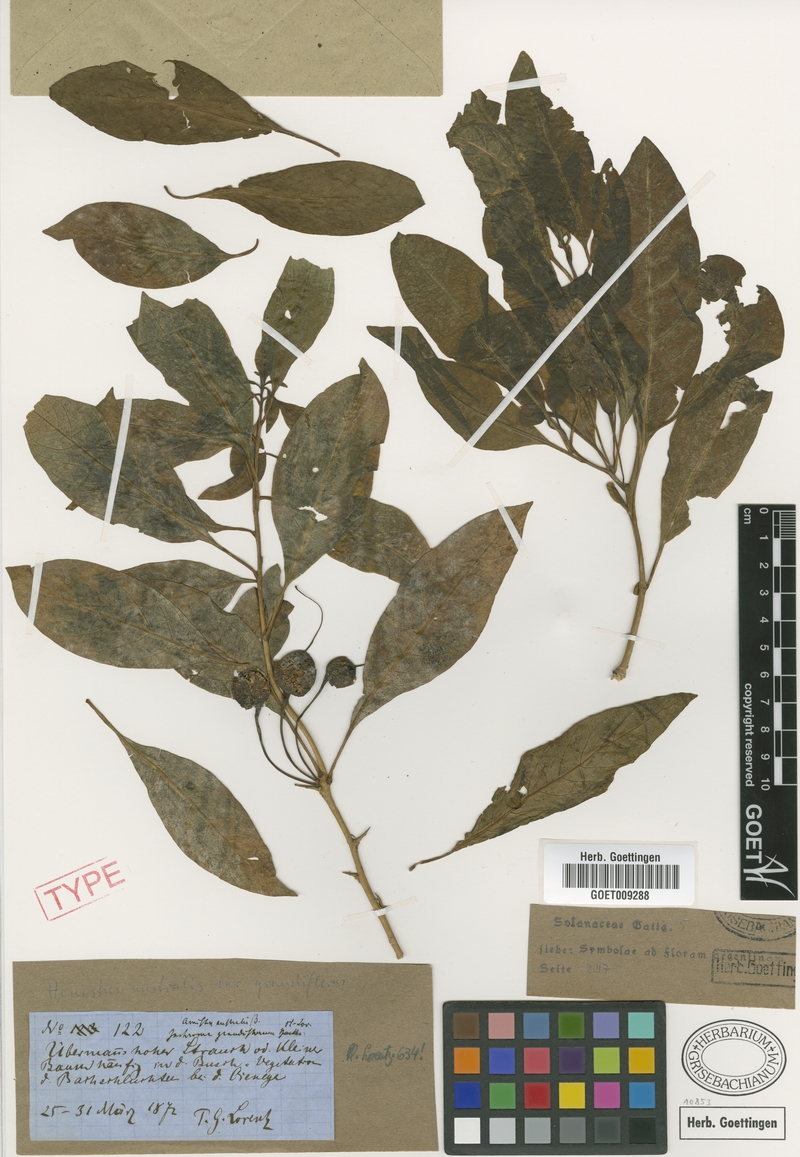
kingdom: Plantae
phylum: Tracheophyta
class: Magnoliopsida
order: Solanales
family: Solanaceae
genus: Eriolarynx
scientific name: Eriolarynx australis
